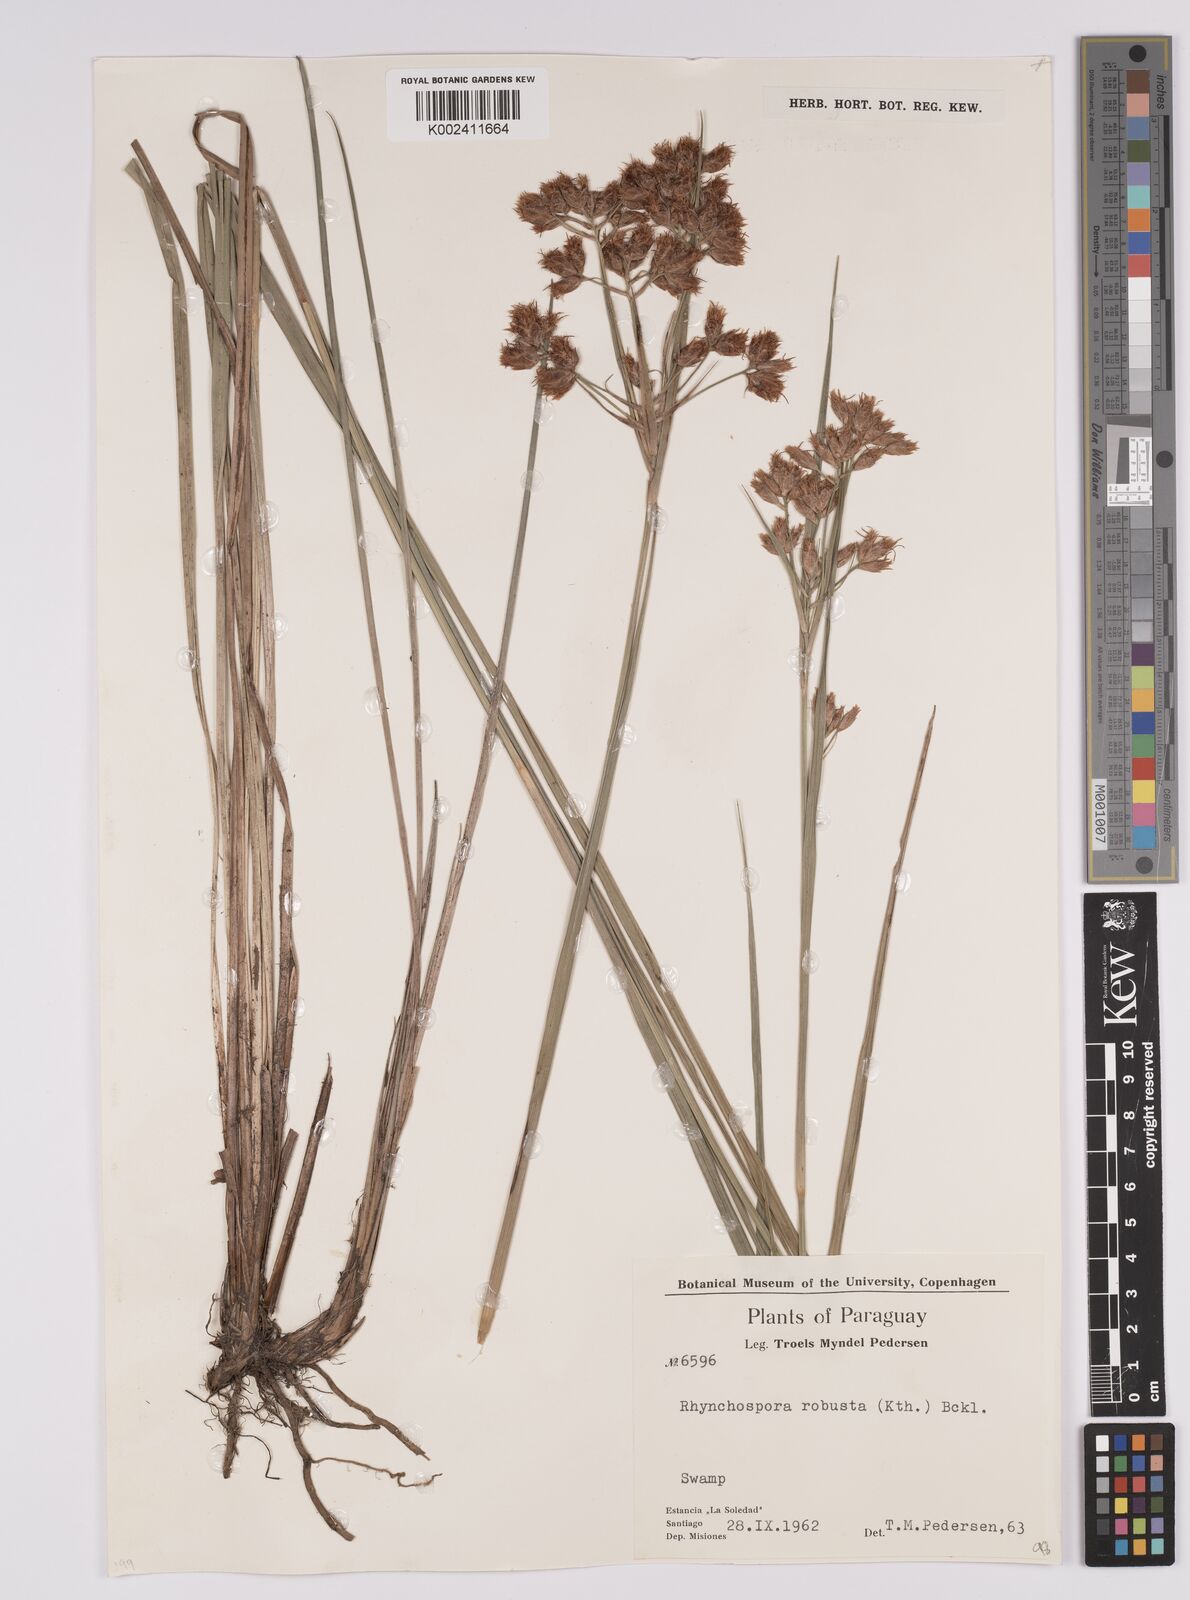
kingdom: Plantae
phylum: Tracheophyta
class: Liliopsida
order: Poales
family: Cyperaceae
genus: Rhynchospora
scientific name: Rhynchospora robusta
